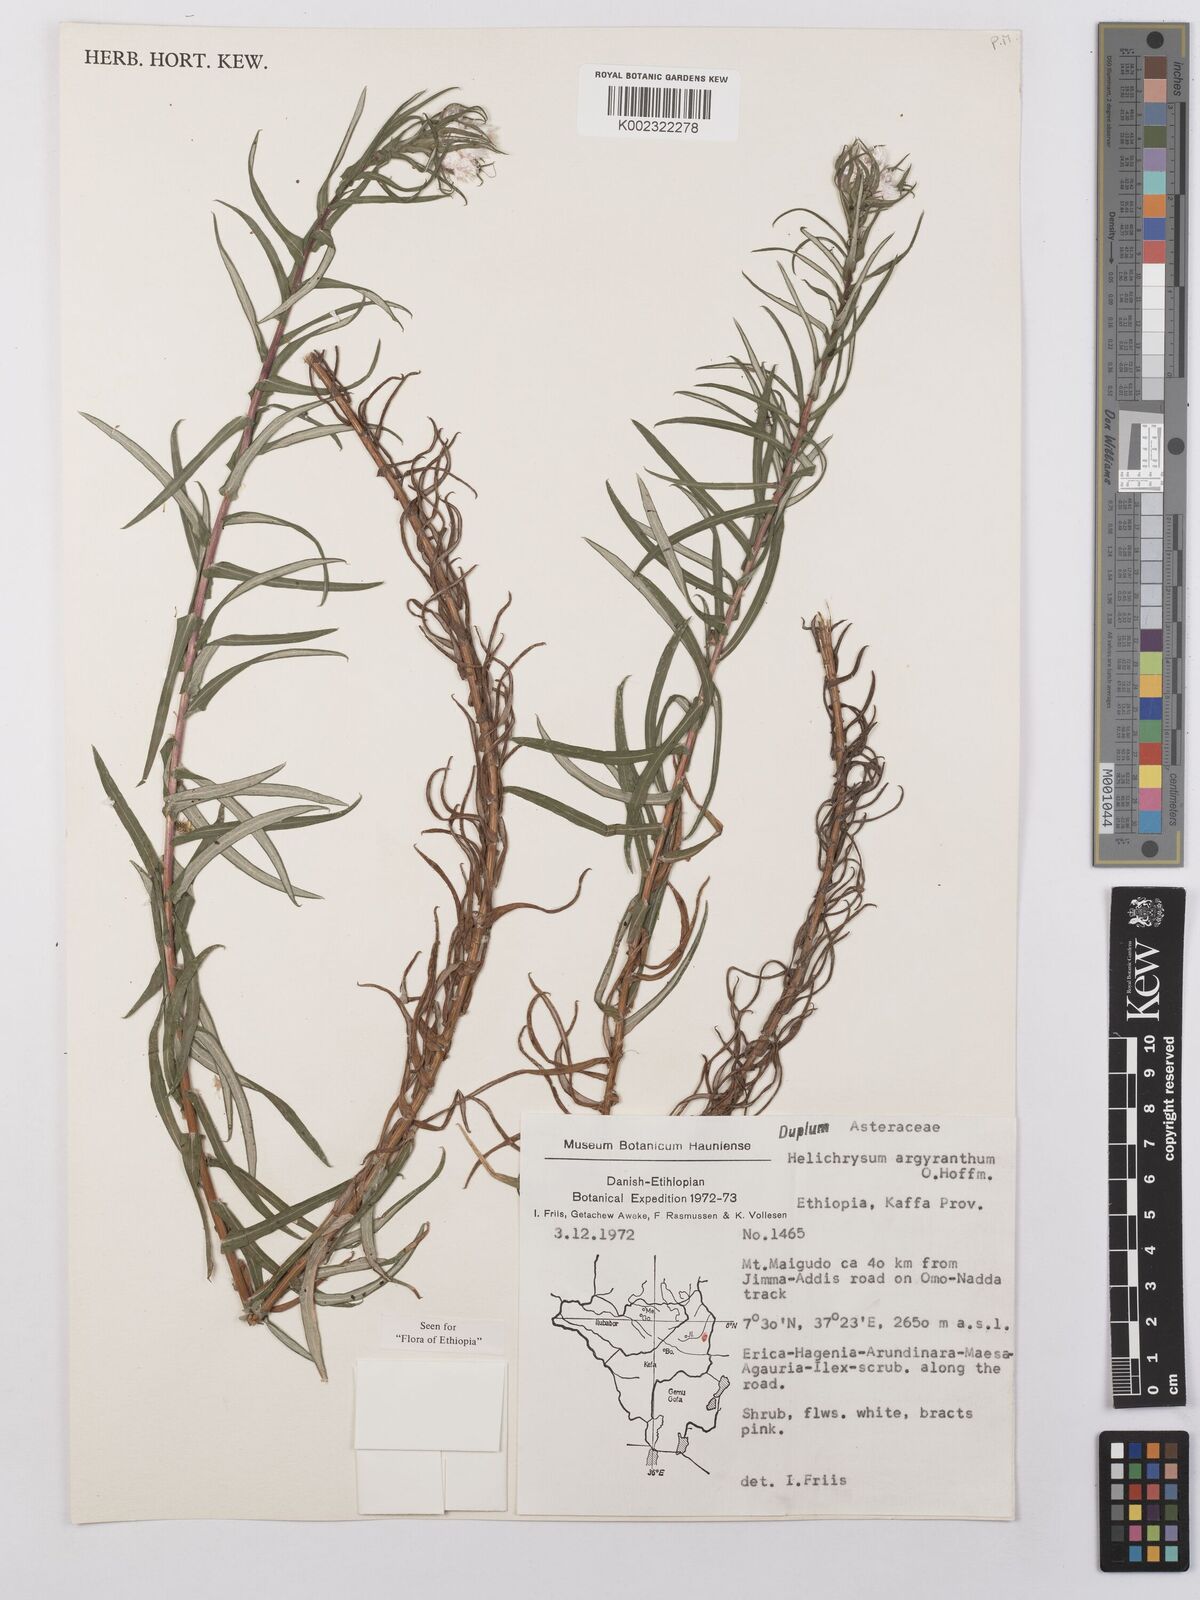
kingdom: Plantae
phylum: Tracheophyta
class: Magnoliopsida
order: Asterales
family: Asteraceae
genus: Helichrysum
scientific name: Helichrysum argyranthum
